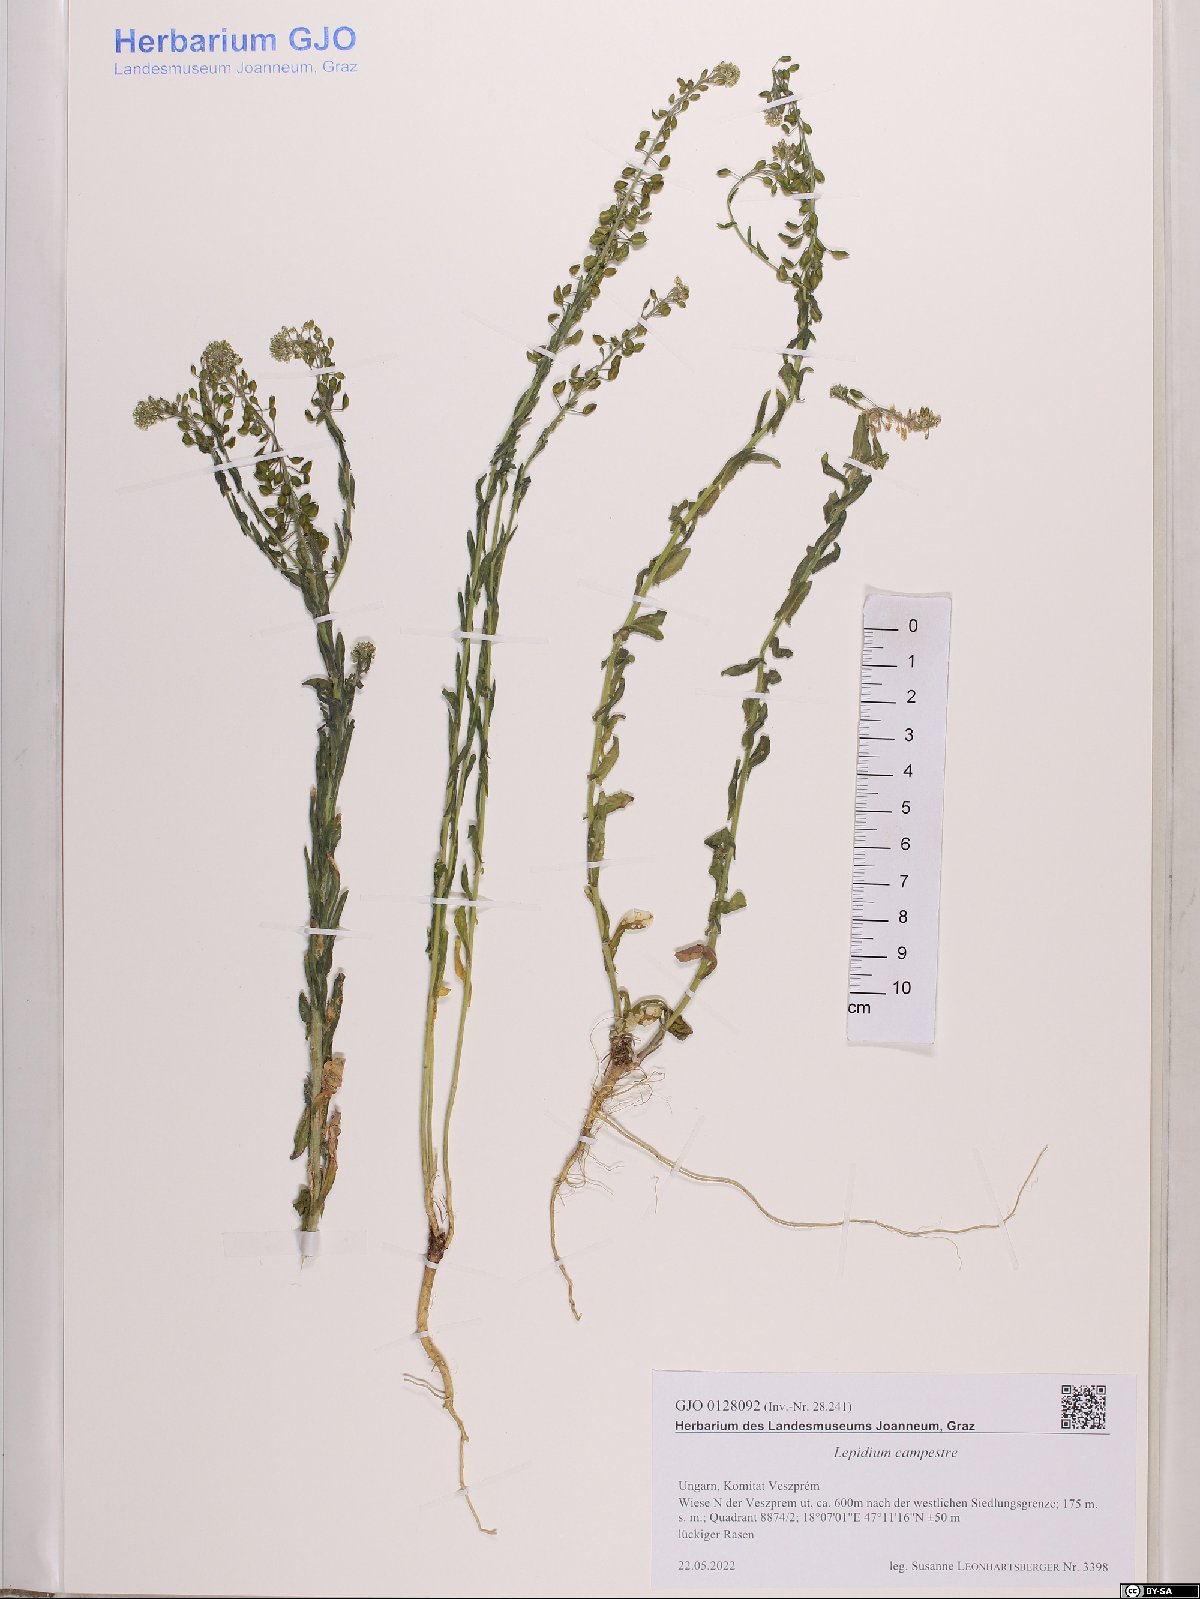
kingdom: Plantae
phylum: Tracheophyta
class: Magnoliopsida
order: Brassicales
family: Brassicaceae
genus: Lepidium
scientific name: Lepidium campestre
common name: Field pepperwort
